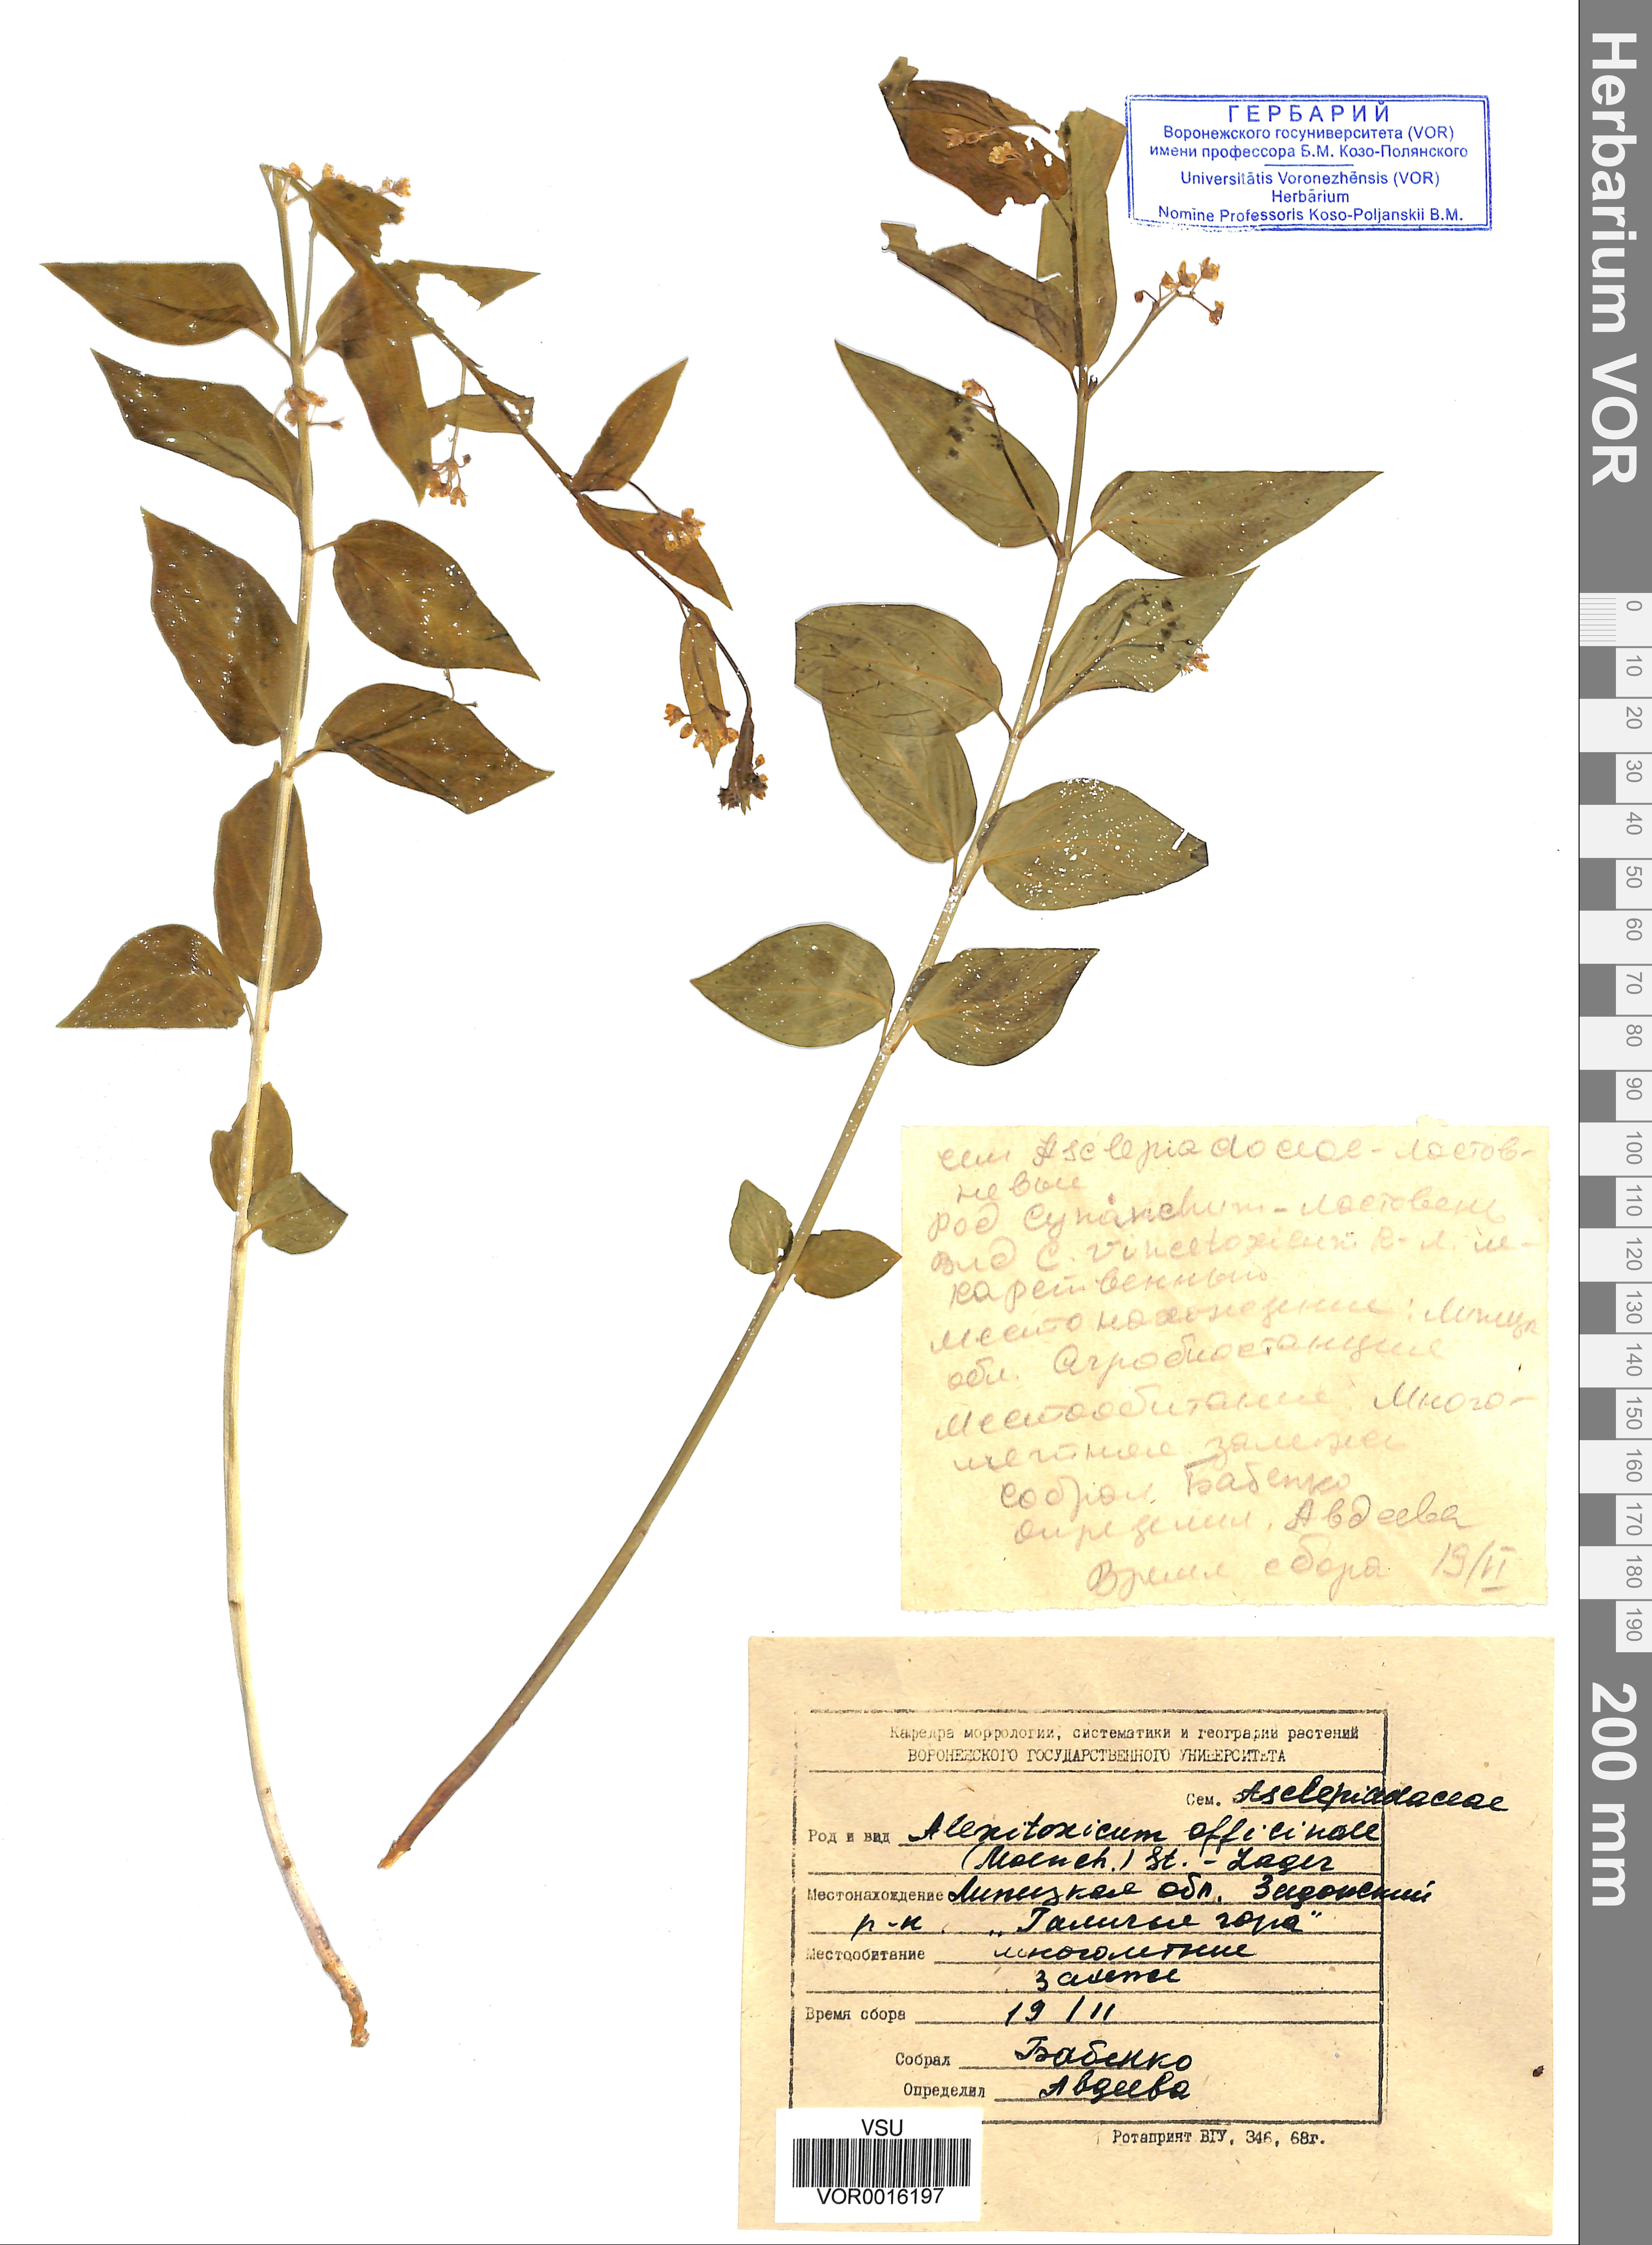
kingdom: Plantae
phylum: Tracheophyta
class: Magnoliopsida
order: Gentianales
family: Apocynaceae
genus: Vincetoxicum
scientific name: Vincetoxicum hirundinaria
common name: White swallowwort
